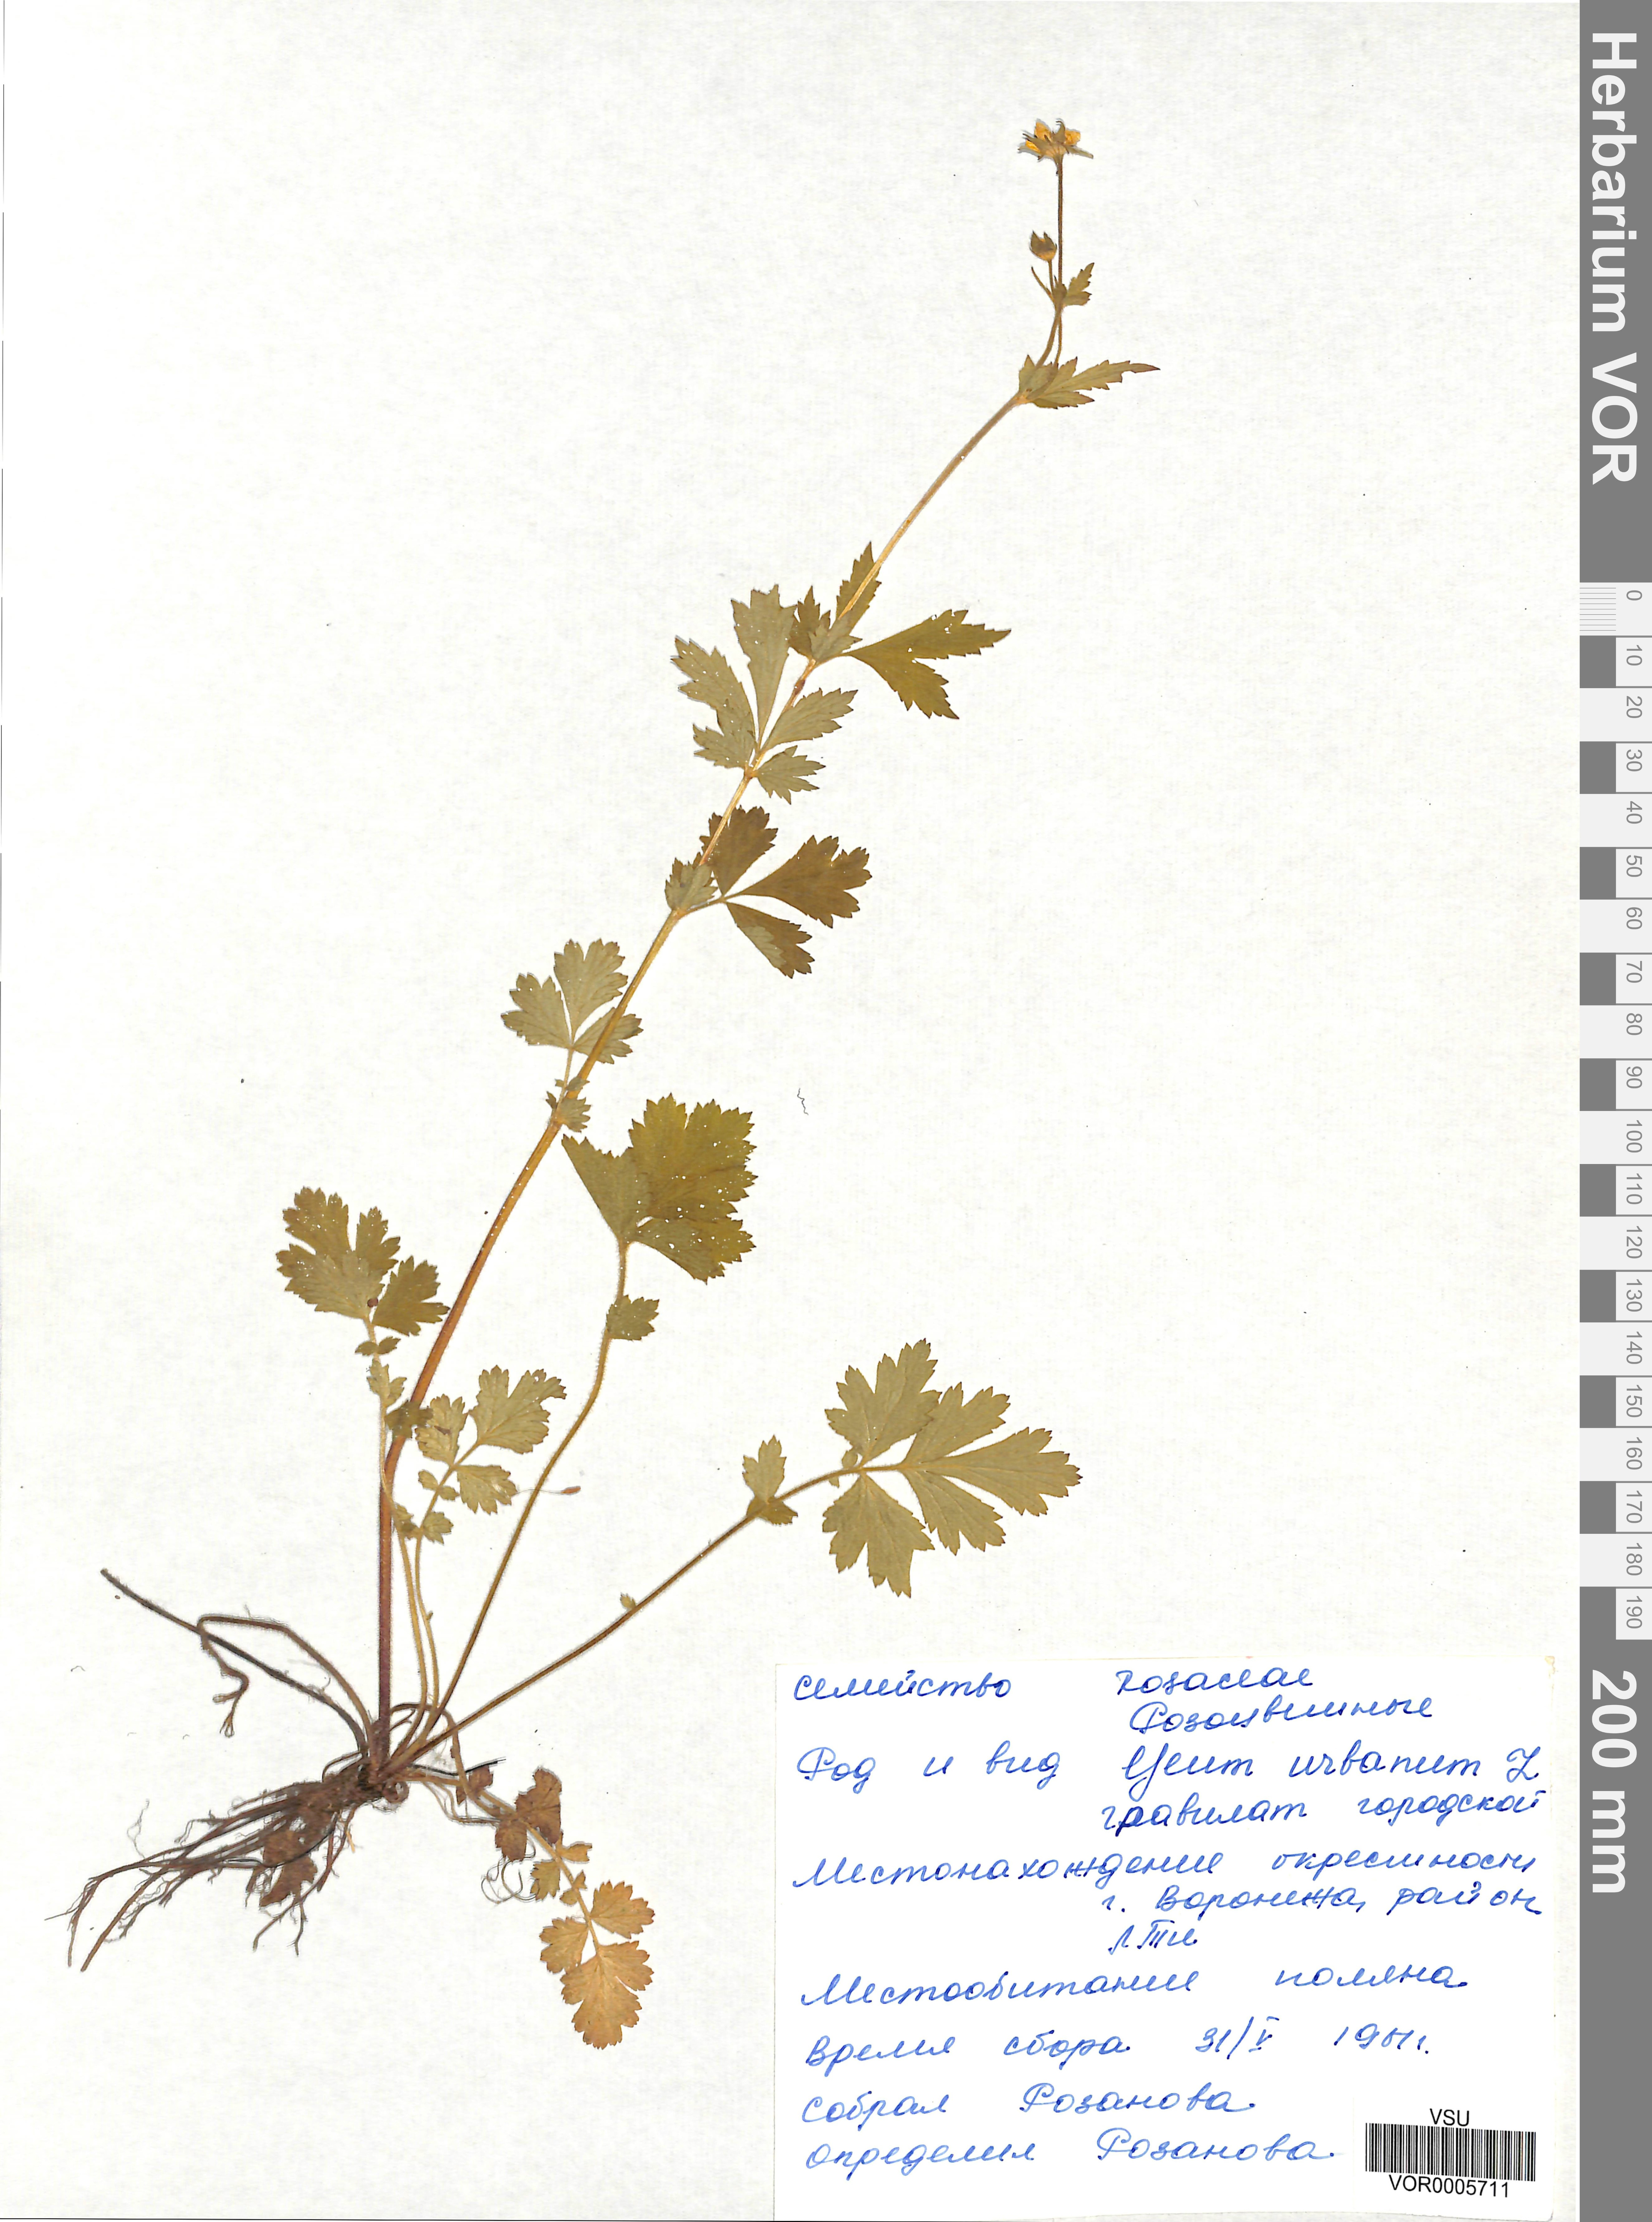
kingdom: Plantae
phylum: Tracheophyta
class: Magnoliopsida
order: Rosales
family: Rosaceae
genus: Geum
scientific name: Geum urbanum
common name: Wood avens
